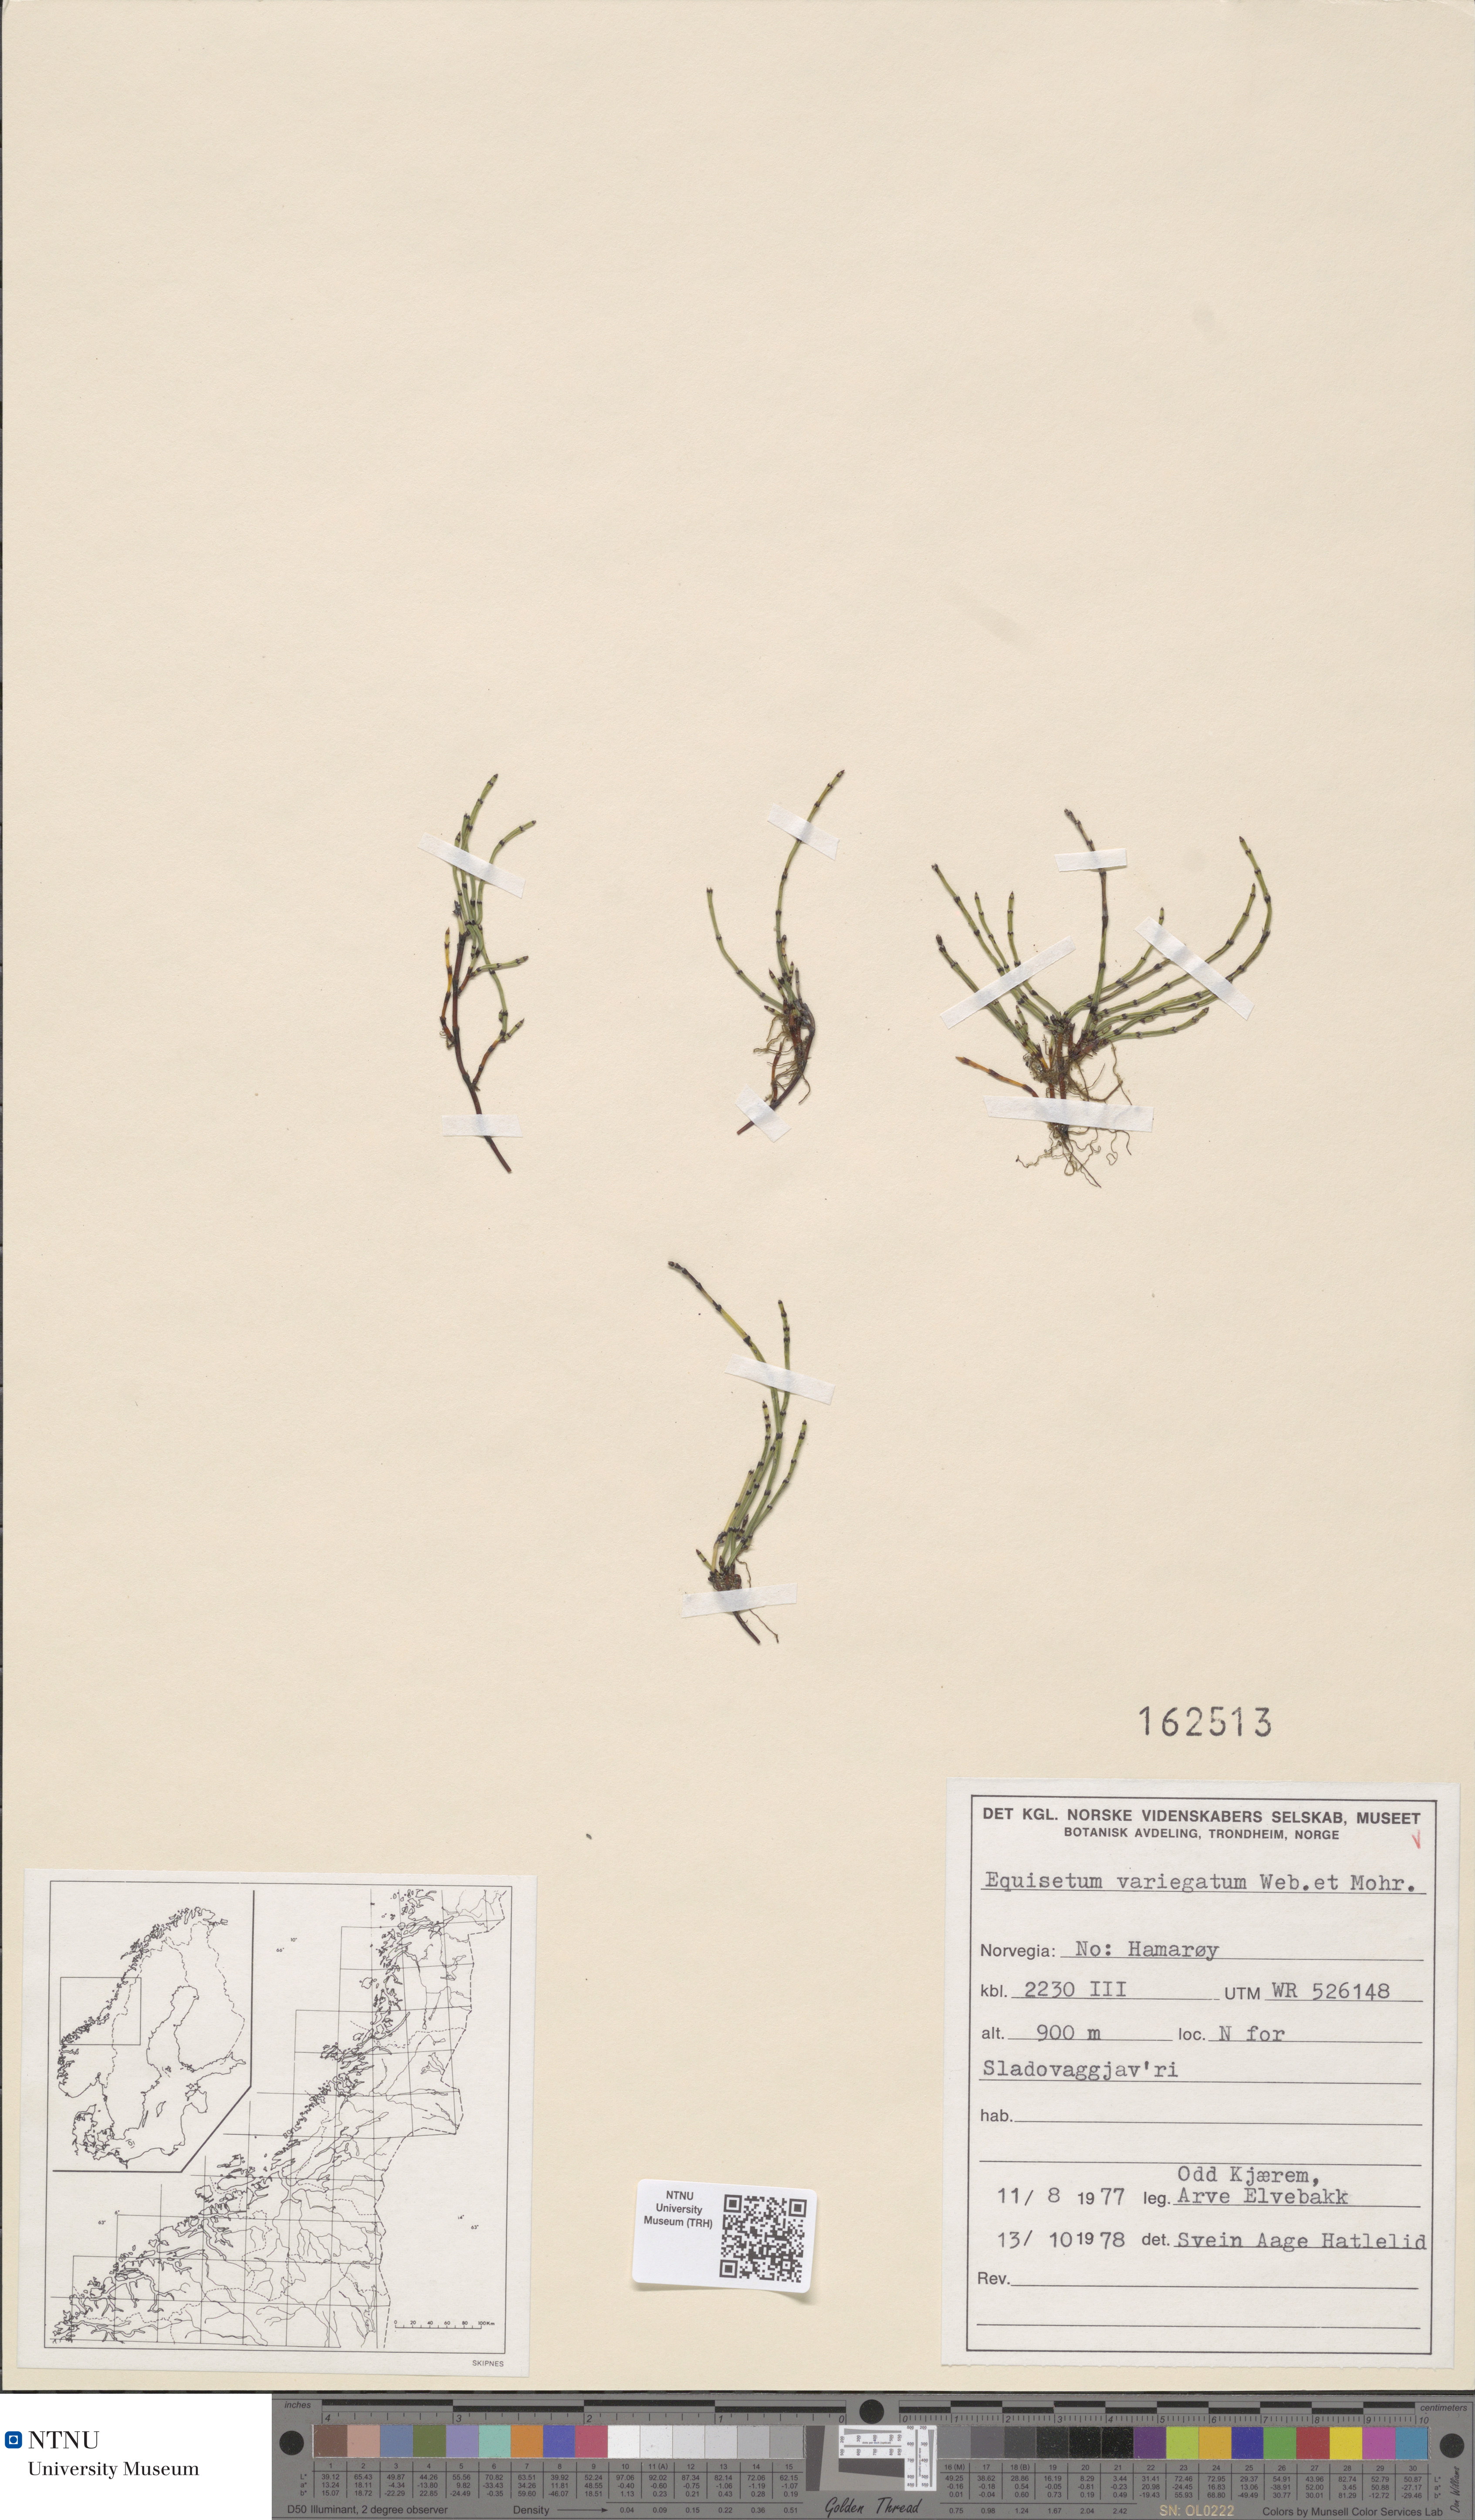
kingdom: Plantae
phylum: Tracheophyta
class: Polypodiopsida
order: Equisetales
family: Equisetaceae
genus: Equisetum
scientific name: Equisetum variegatum
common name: Variegated horsetail
